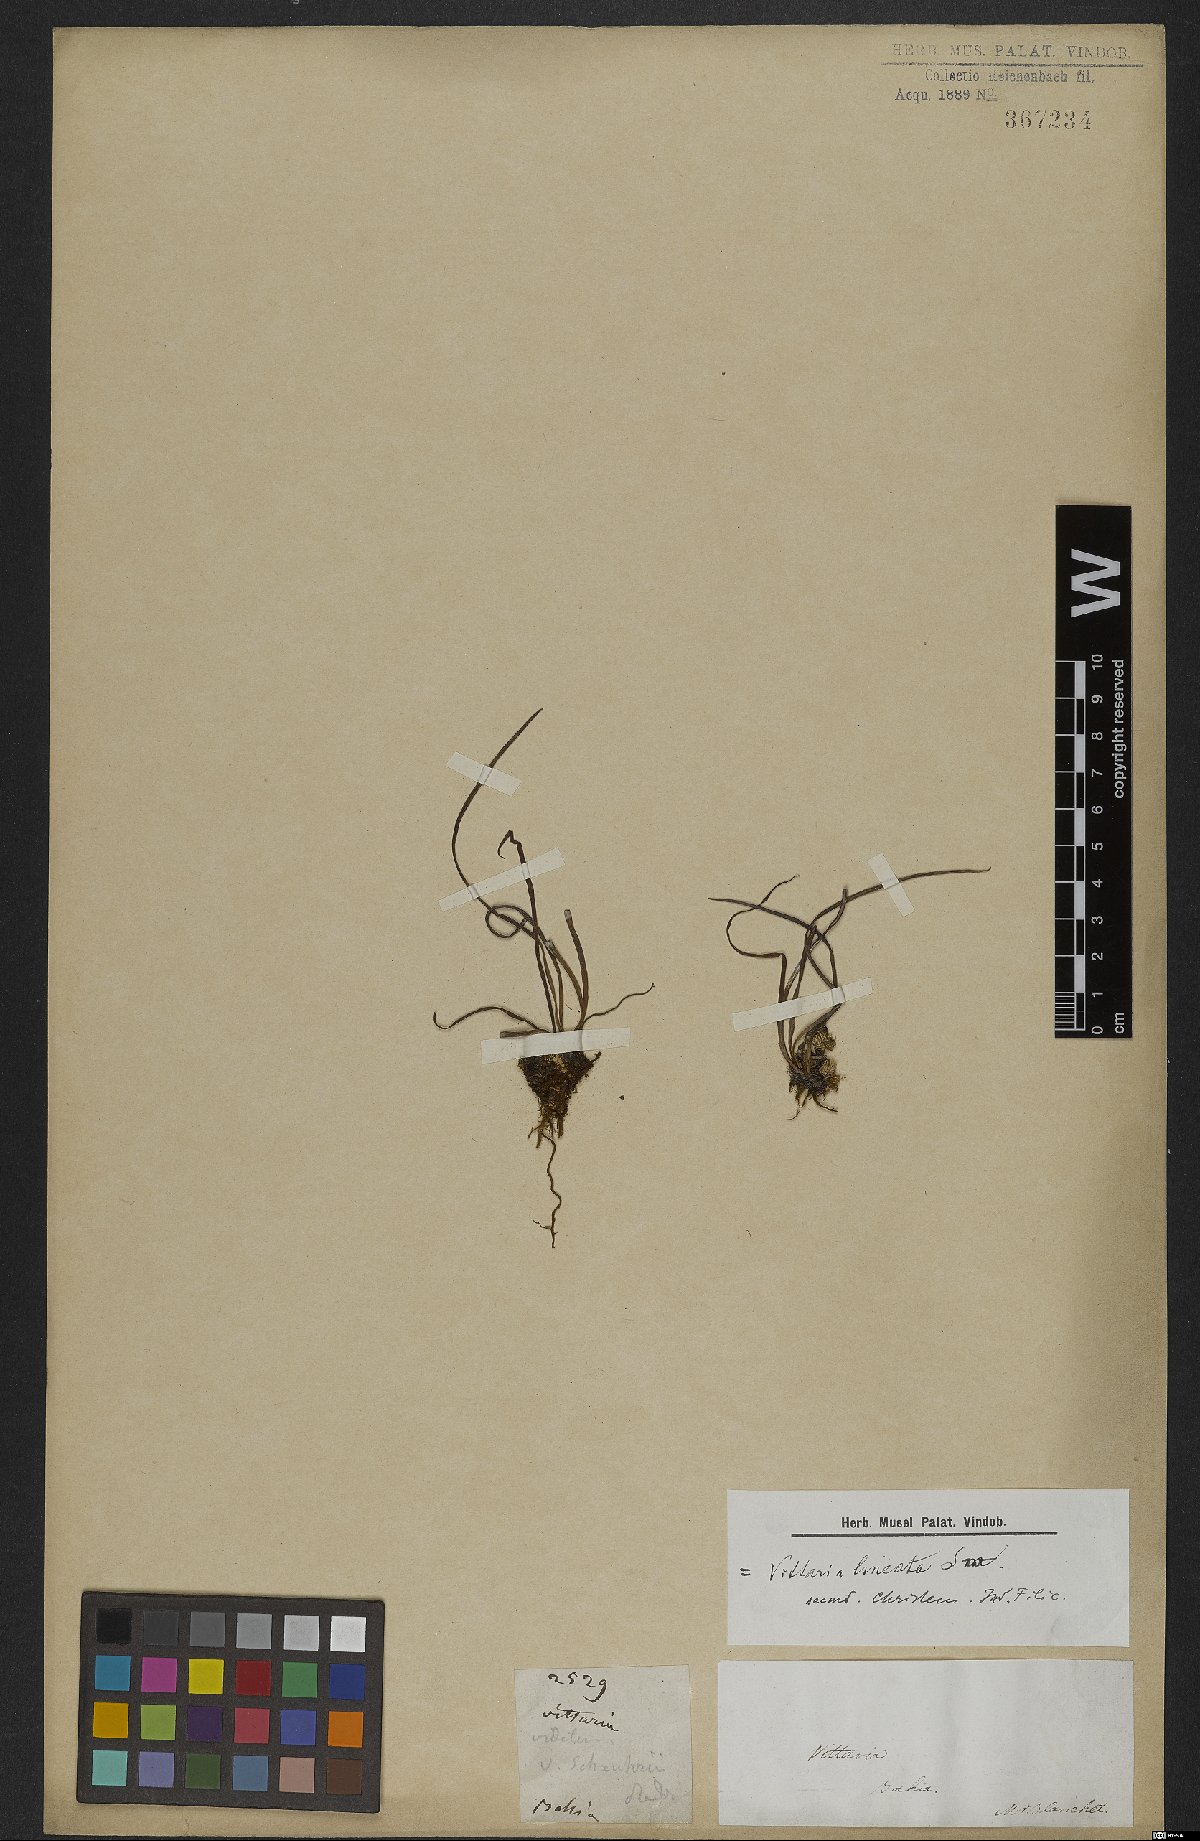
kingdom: Plantae
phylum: Tracheophyta
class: Polypodiopsida
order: Polypodiales
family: Pteridaceae
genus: Vittaria
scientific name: Vittaria lineata
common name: Shoestring fern
